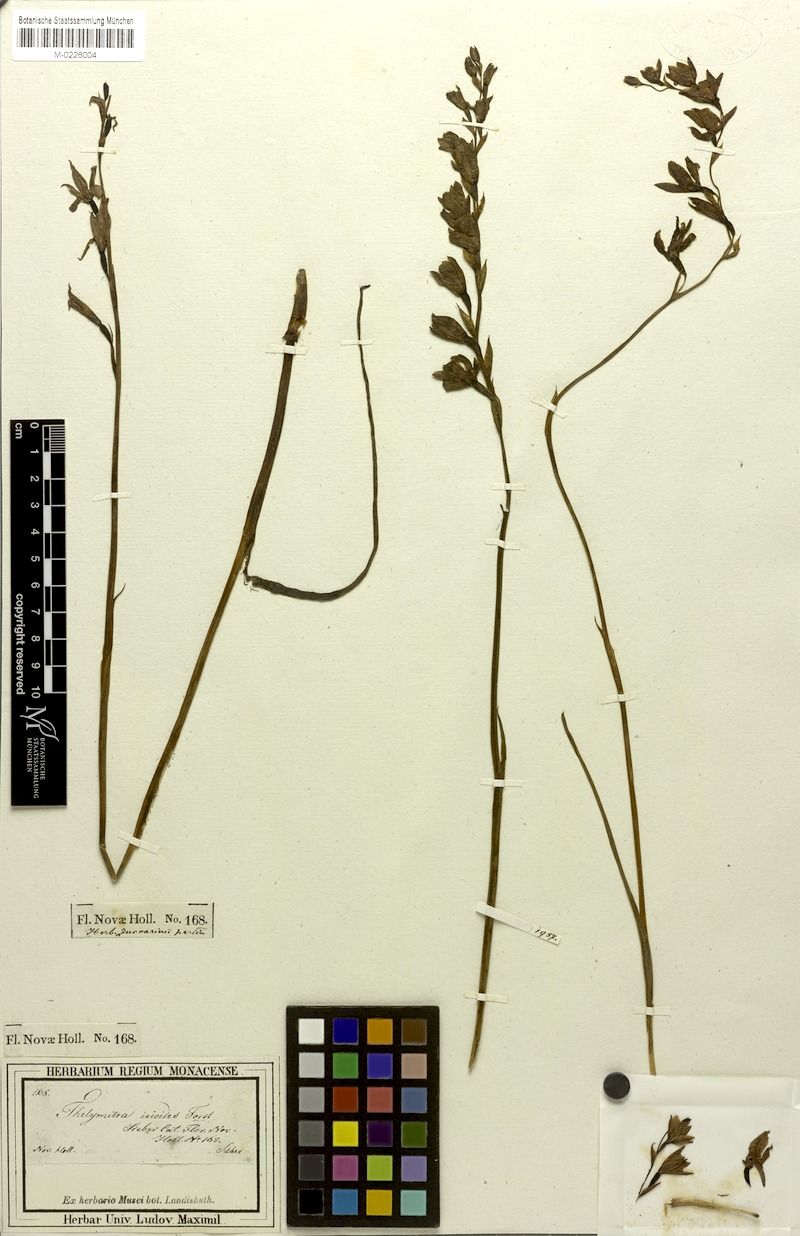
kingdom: Plantae
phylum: Tracheophyta
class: Liliopsida
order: Asparagales
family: Orchidaceae
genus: Thelymitra
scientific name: Thelymitra ixioides
